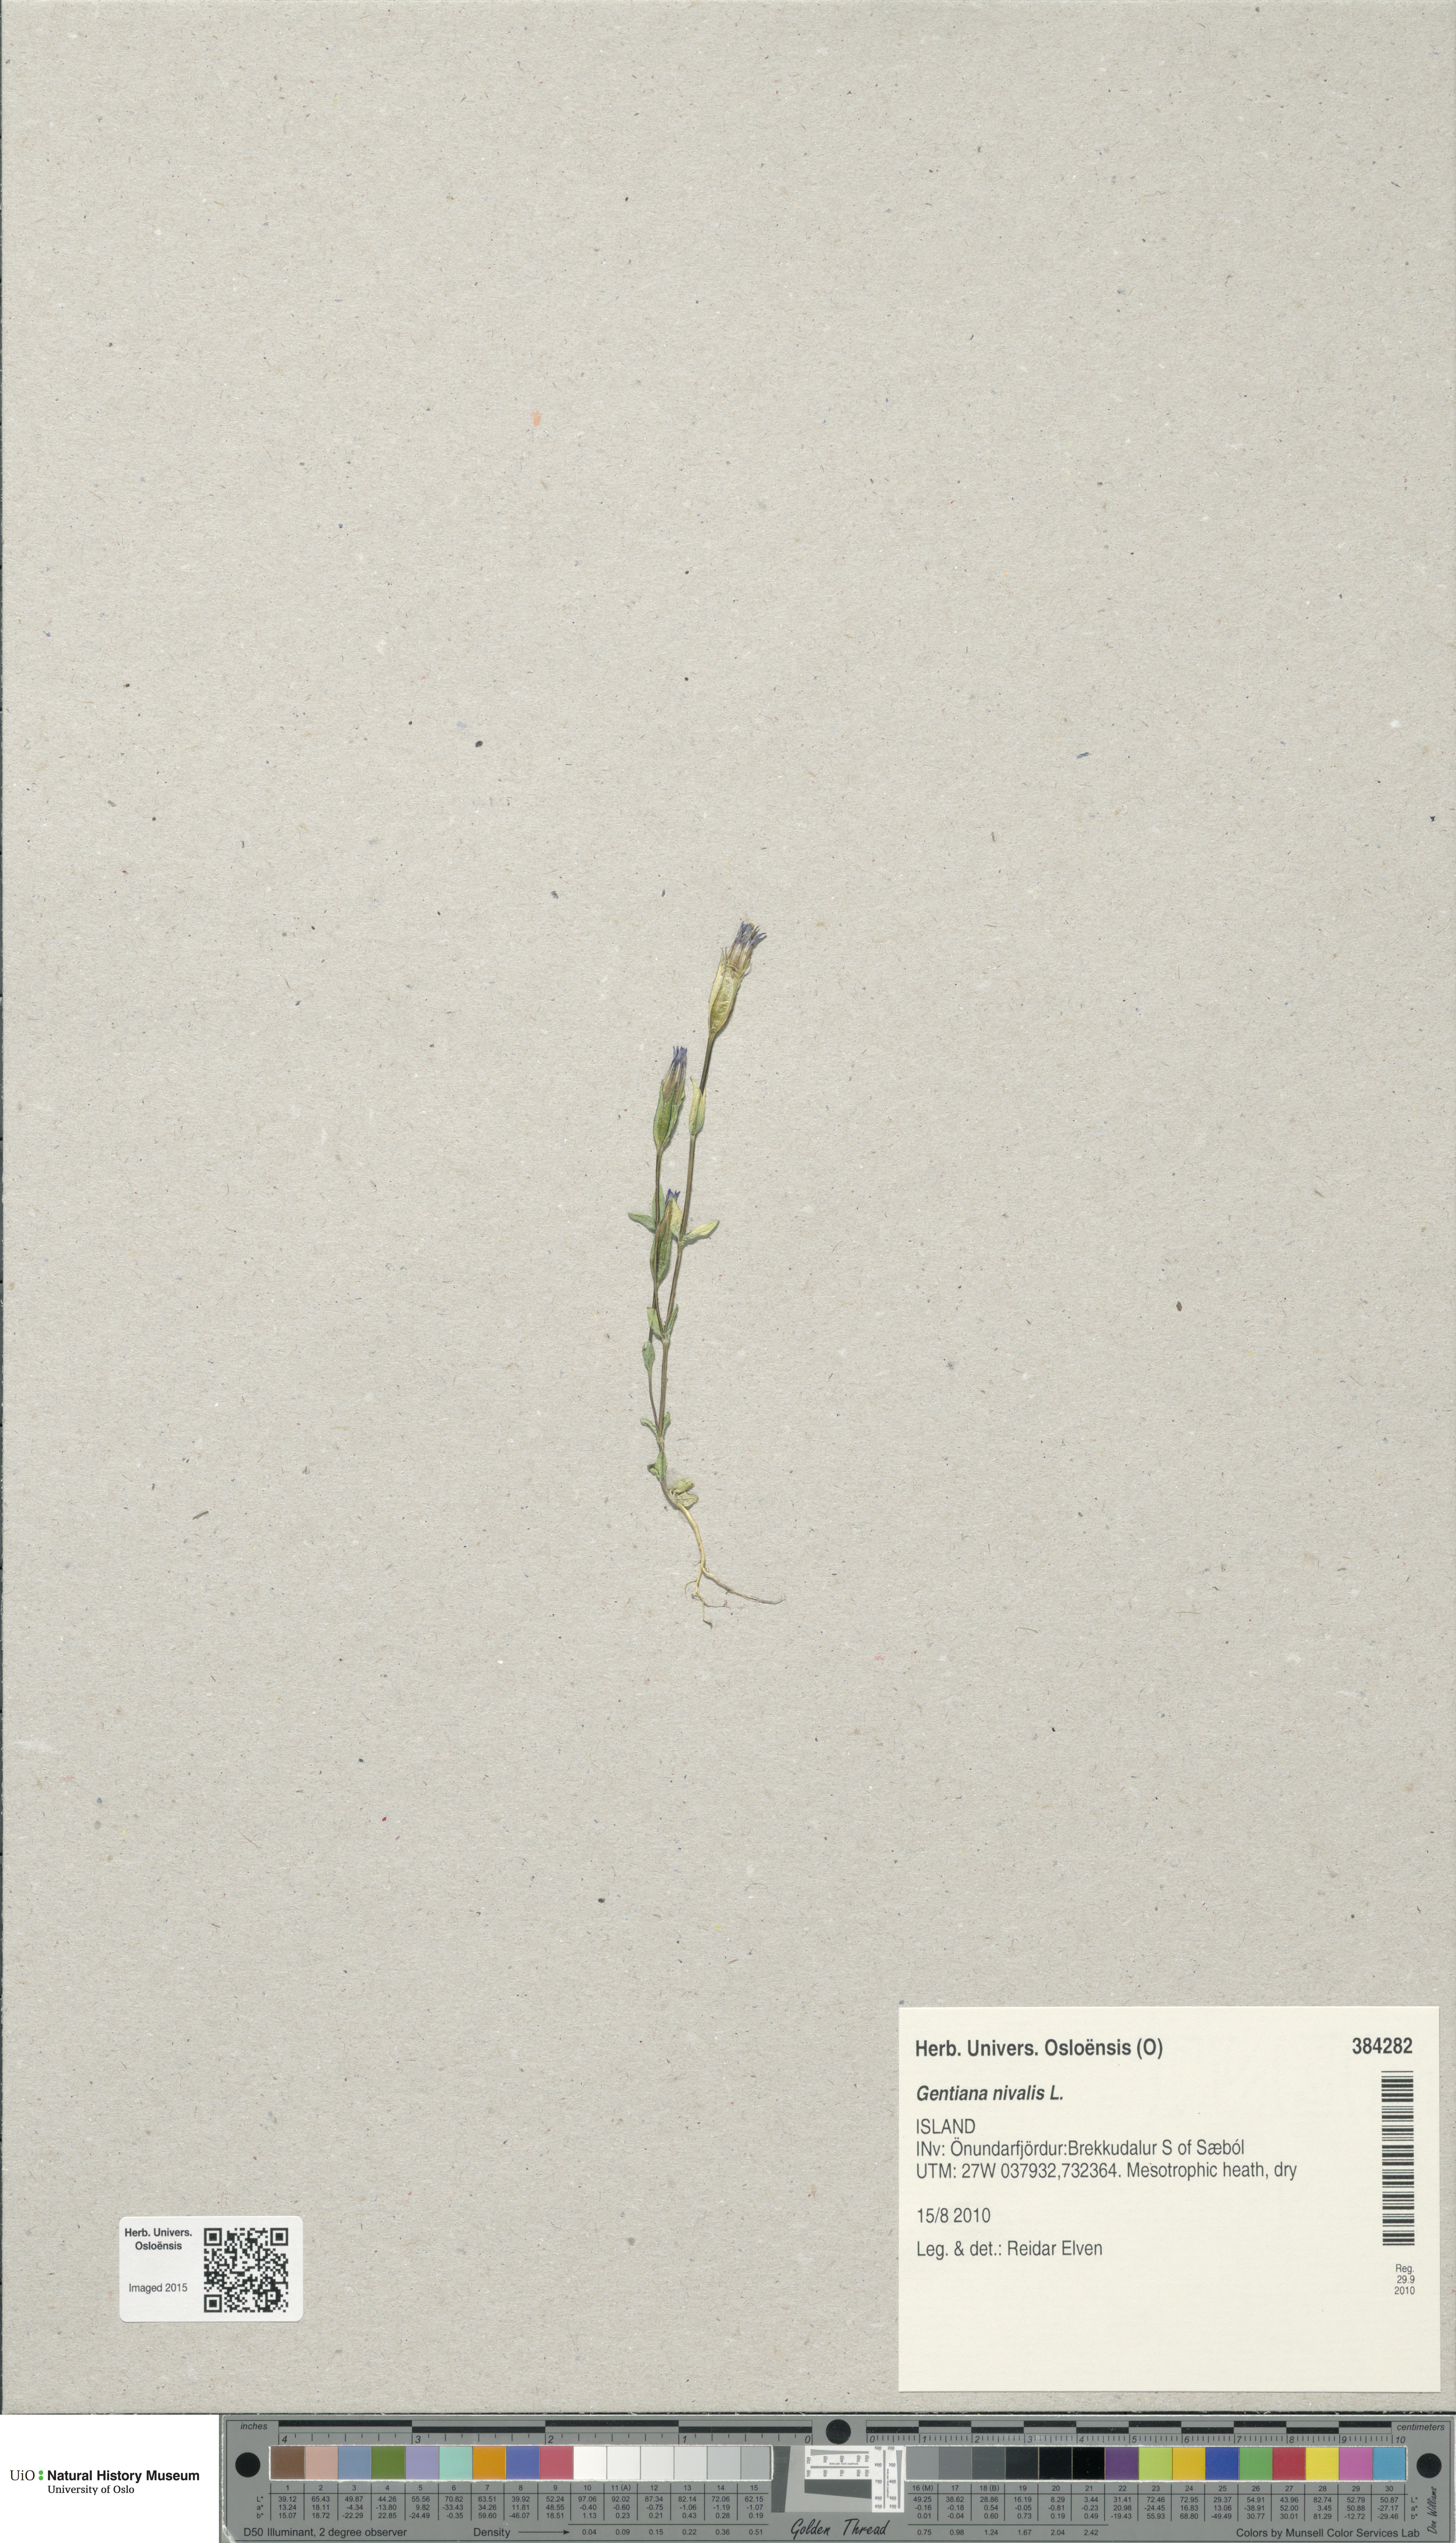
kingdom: Plantae
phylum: Tracheophyta
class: Magnoliopsida
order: Gentianales
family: Gentianaceae
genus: Gentiana
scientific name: Gentiana nivalis
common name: Alpine gentian
